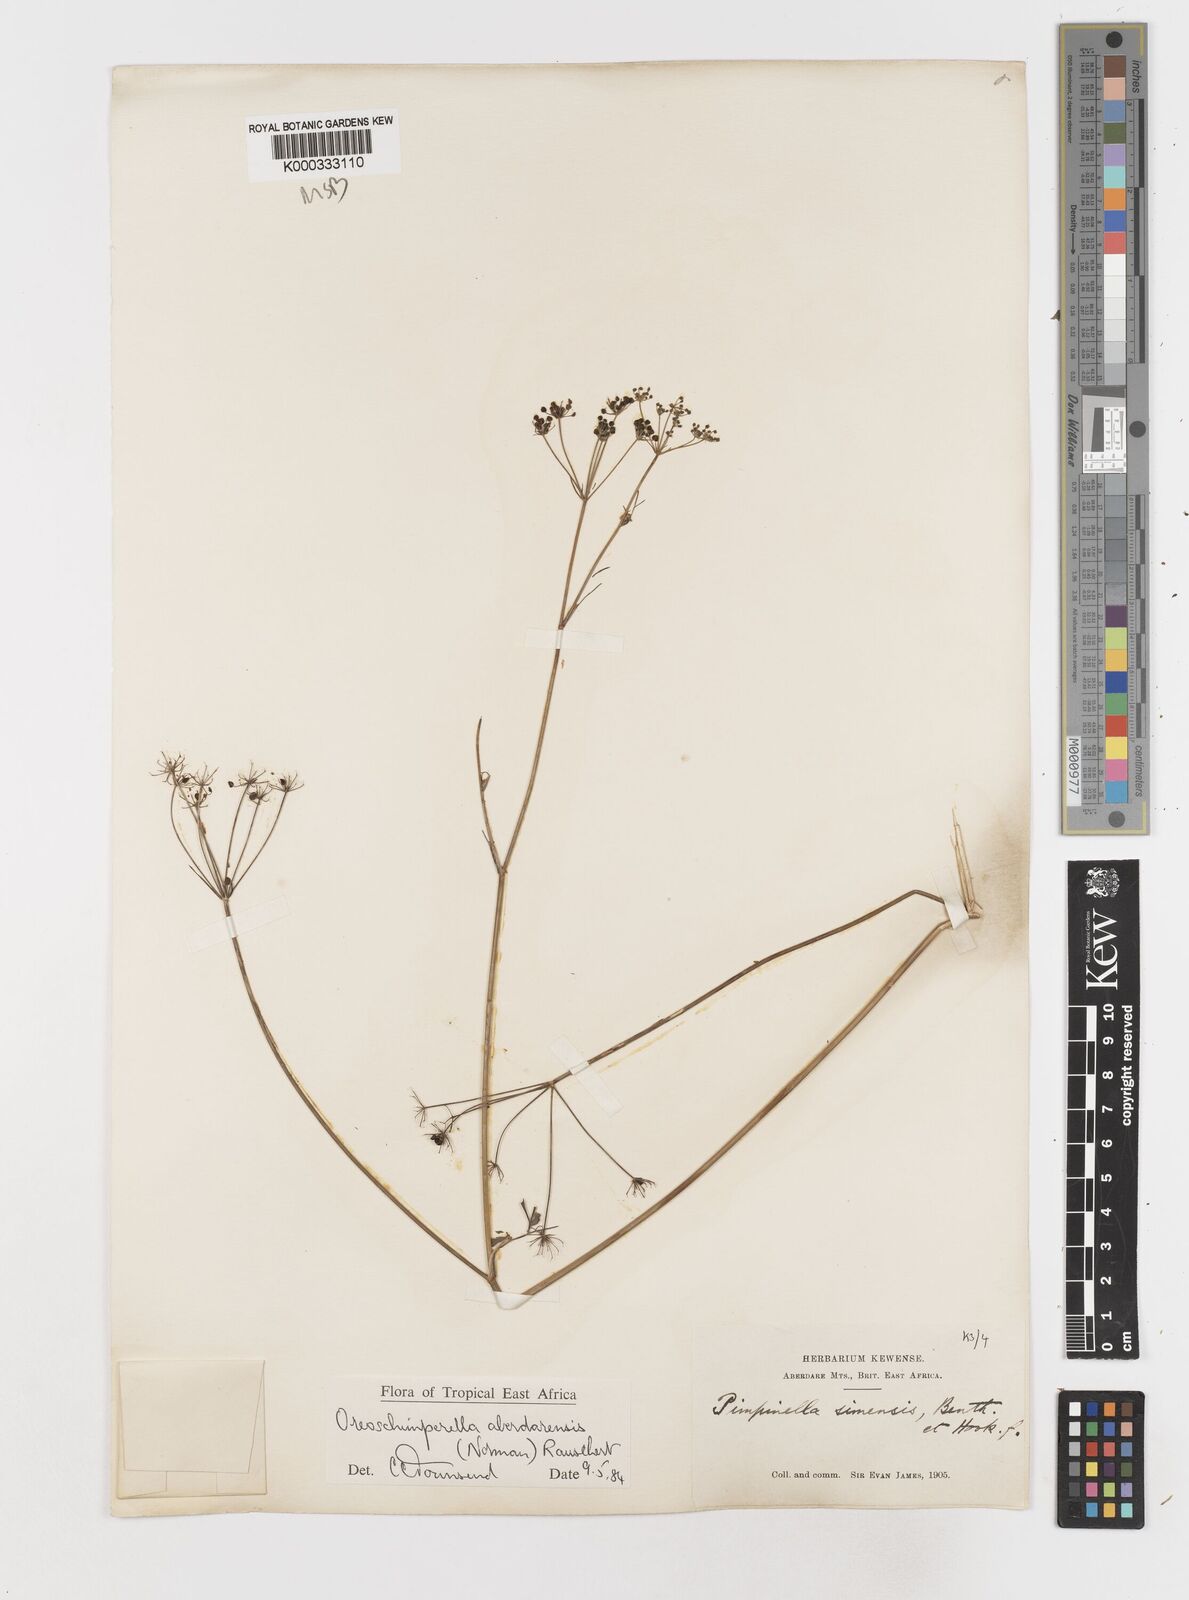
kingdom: Plantae
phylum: Tracheophyta
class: Magnoliopsida
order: Apiales
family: Apiaceae
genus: Oreoschimperella
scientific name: Oreoschimperella aberdarensis
